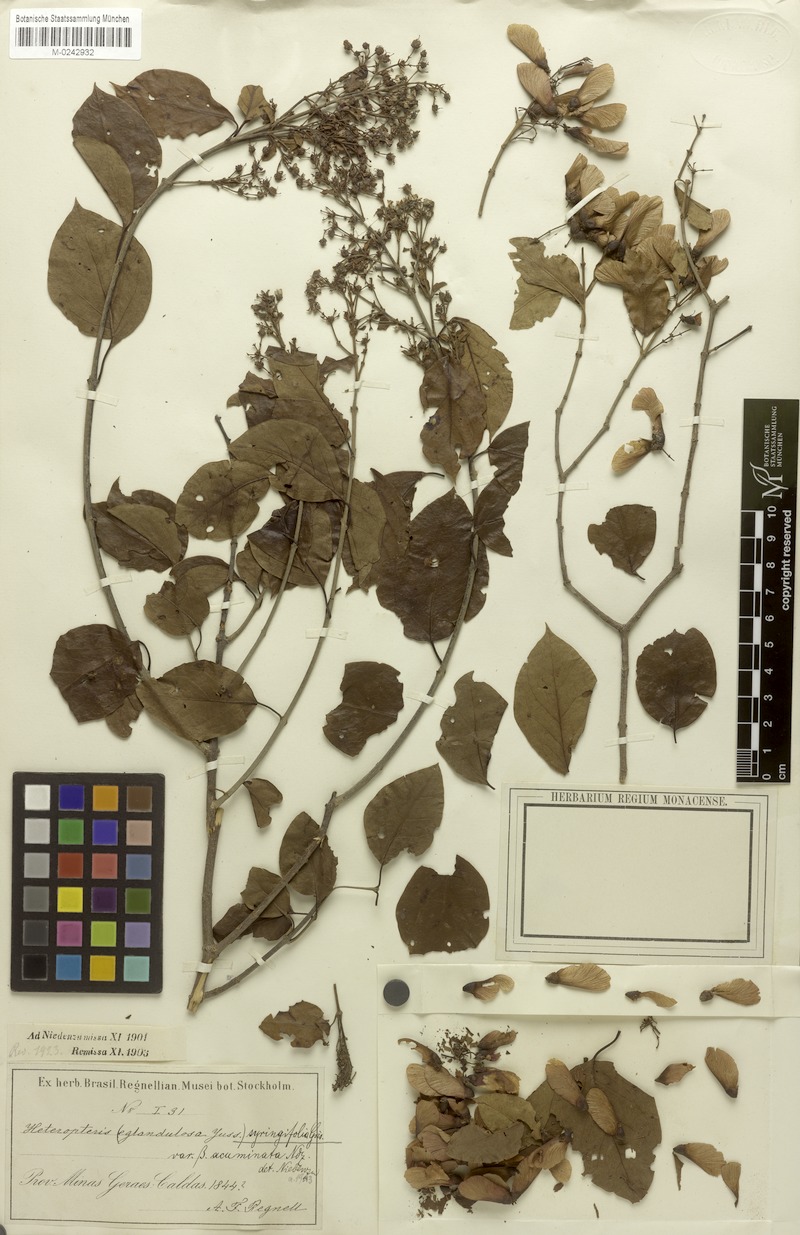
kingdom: Plantae
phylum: Tracheophyta
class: Magnoliopsida
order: Malpighiales
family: Malpighiaceae
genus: Heteropterys
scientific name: Heteropterys syringifolia
